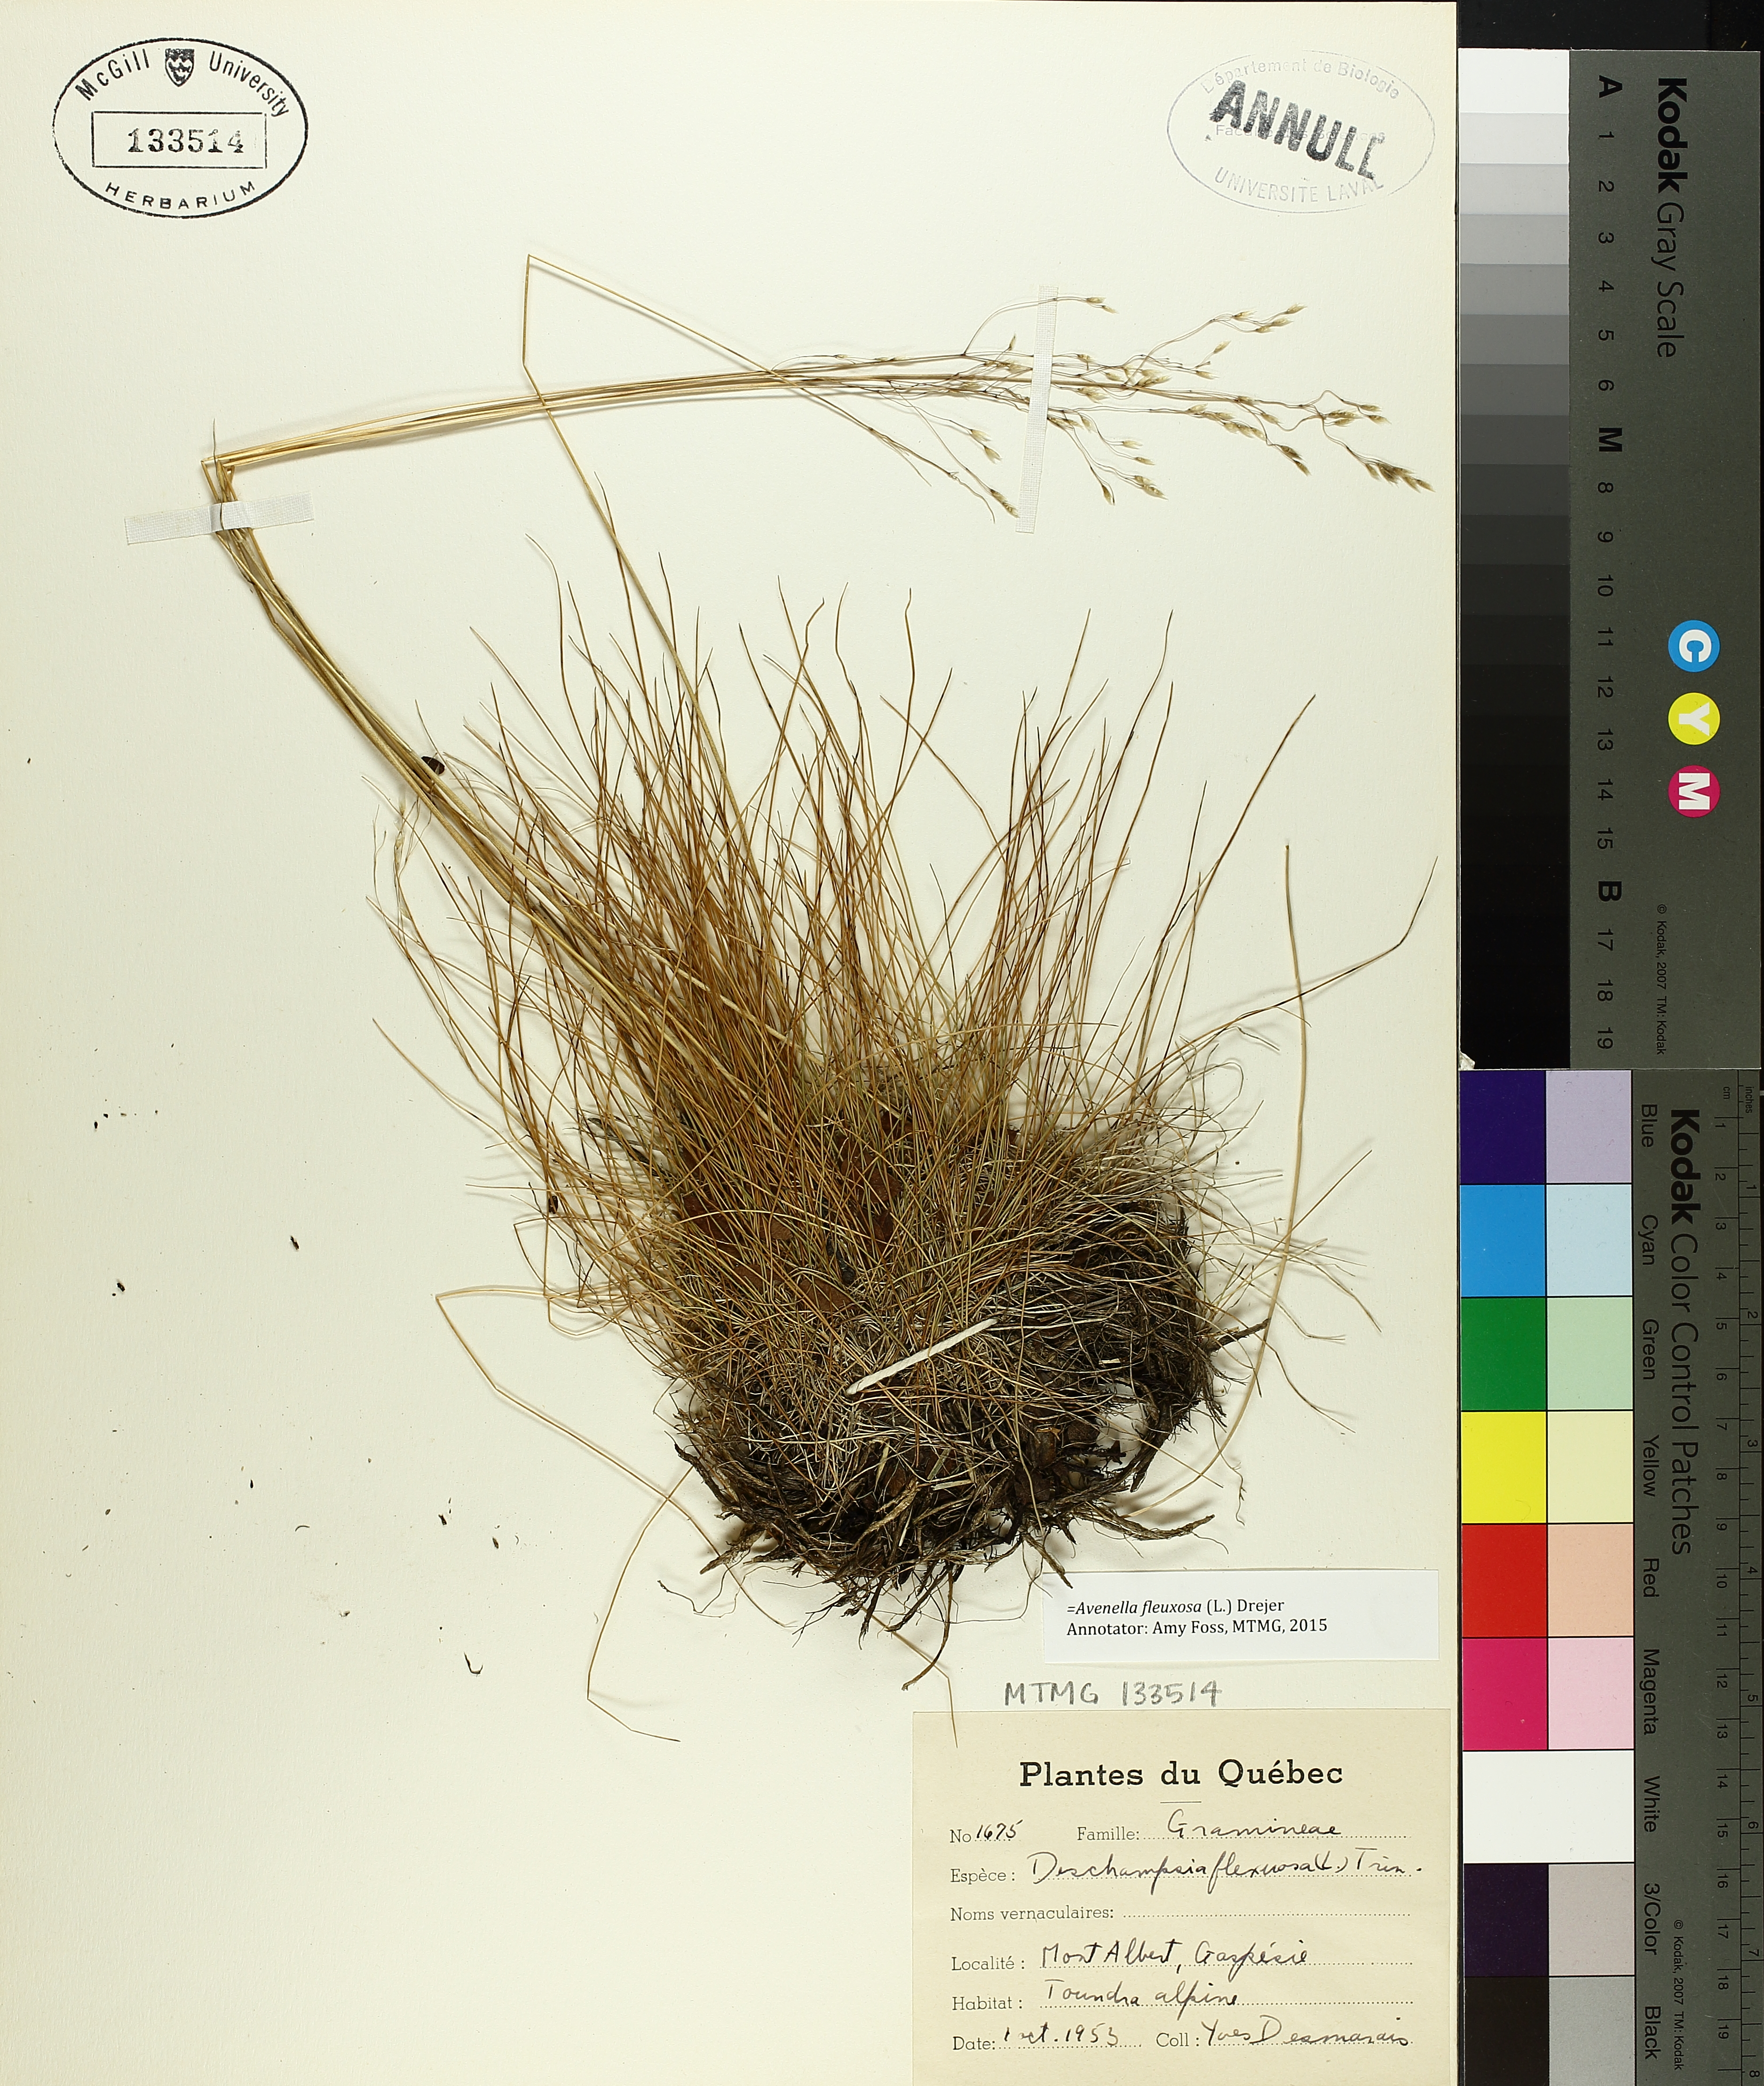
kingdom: Plantae
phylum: Tracheophyta
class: Magnoliopsida
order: Malpighiales
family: Hypericaceae
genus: Hypericum
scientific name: Hypericum richeri
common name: Alpine st john's-wort
